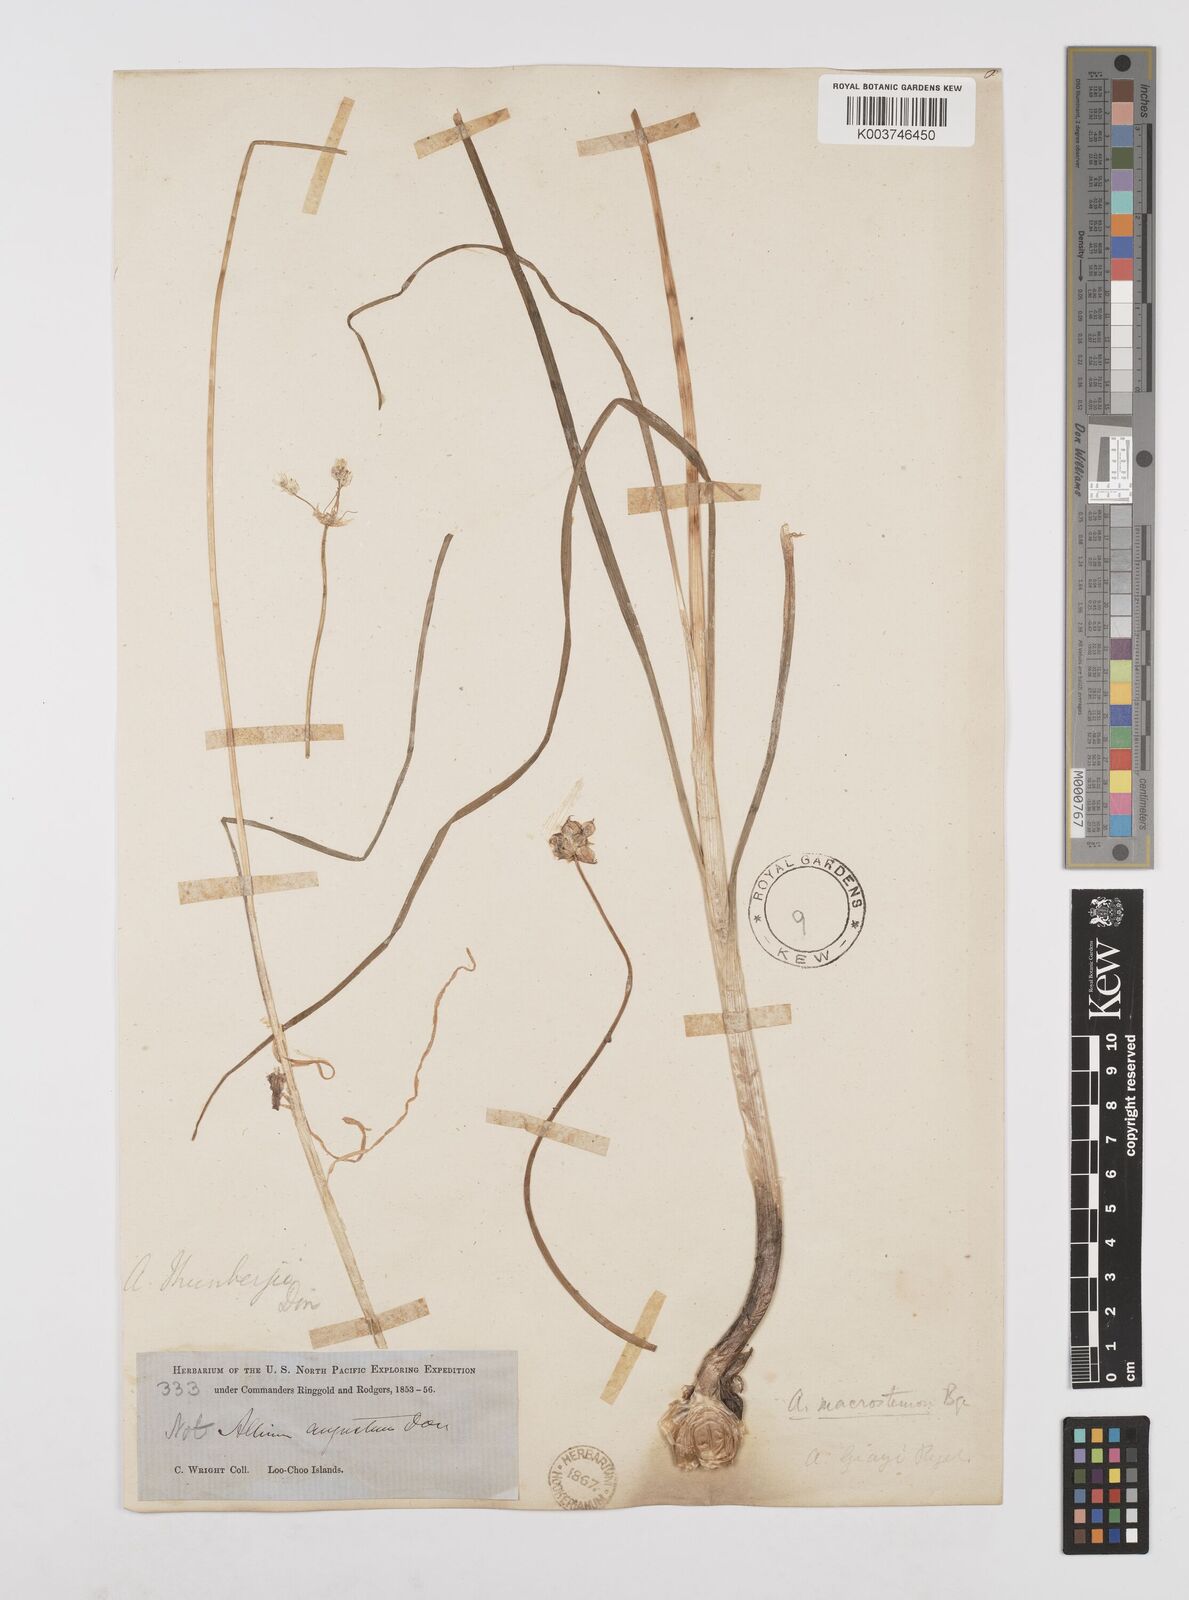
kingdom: Plantae
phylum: Tracheophyta
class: Liliopsida
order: Asparagales
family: Amaryllidaceae
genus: Allium
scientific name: Allium macrostemon
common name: Chinese garlic
